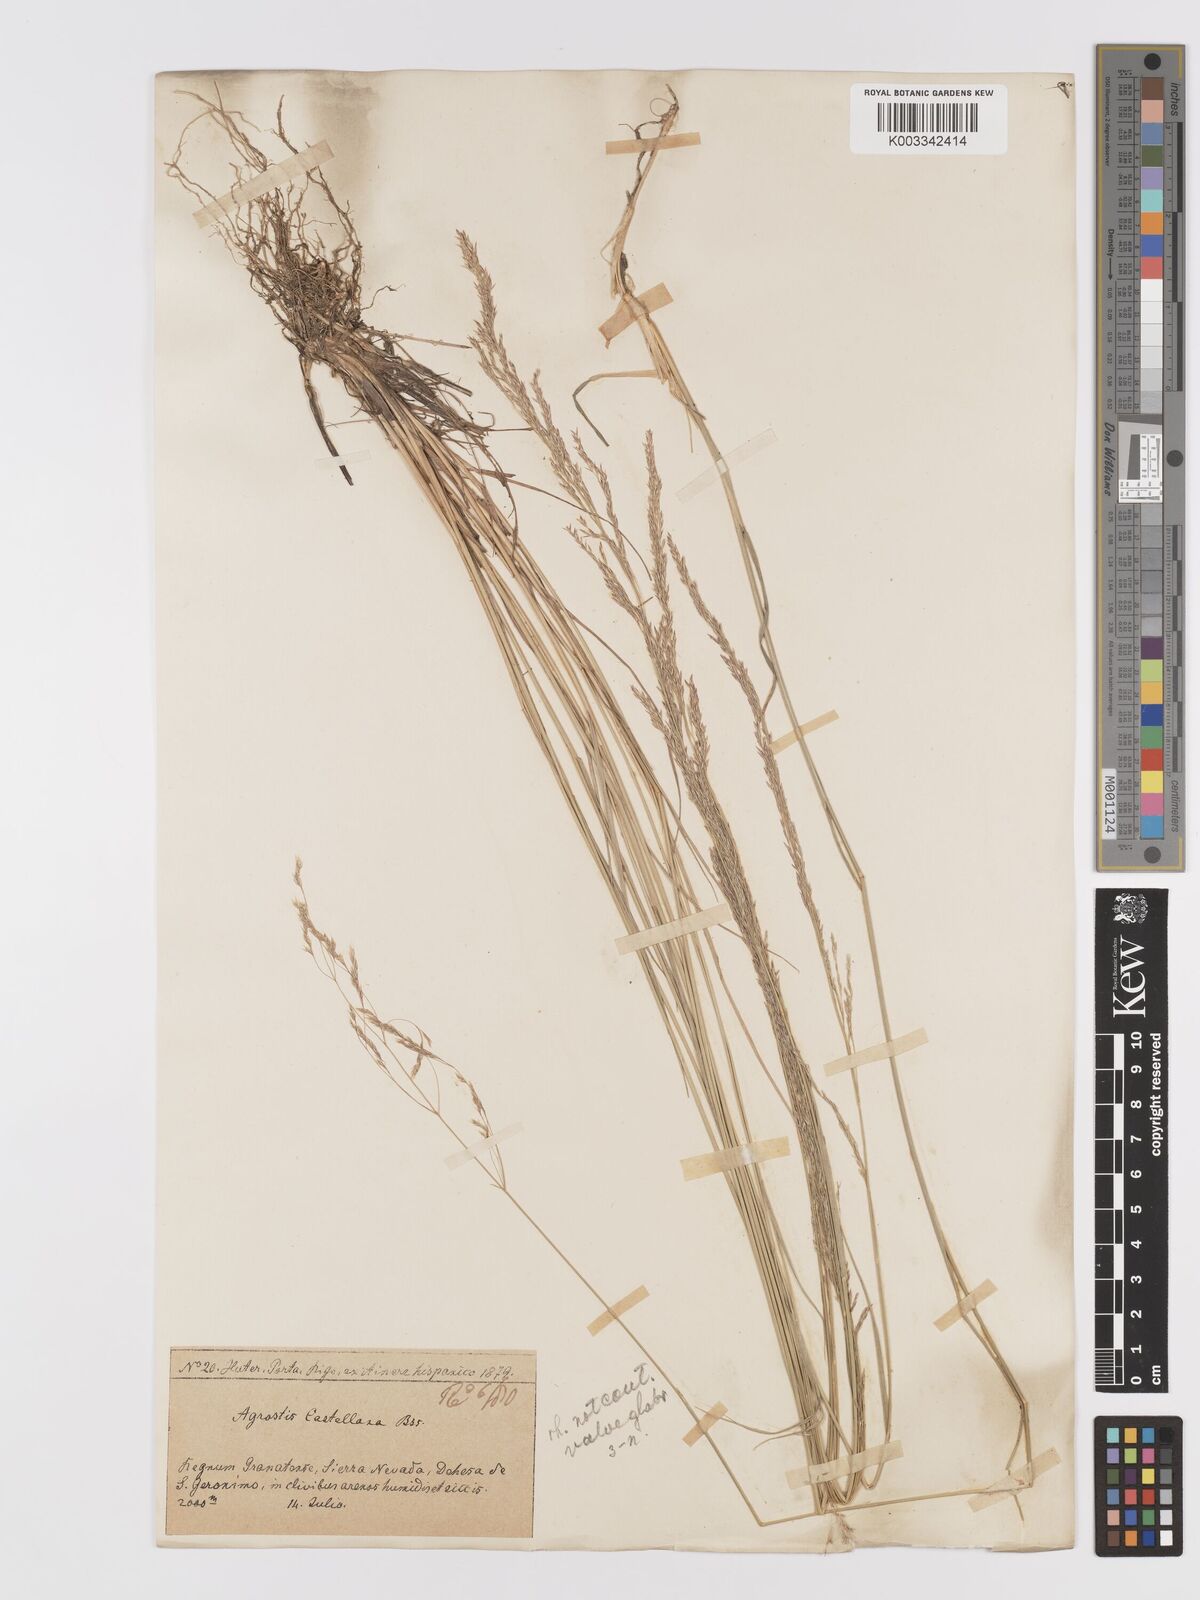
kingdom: Plantae
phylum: Tracheophyta
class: Liliopsida
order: Poales
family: Poaceae
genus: Agrostis
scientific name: Agrostis castellana
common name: Highland bent
